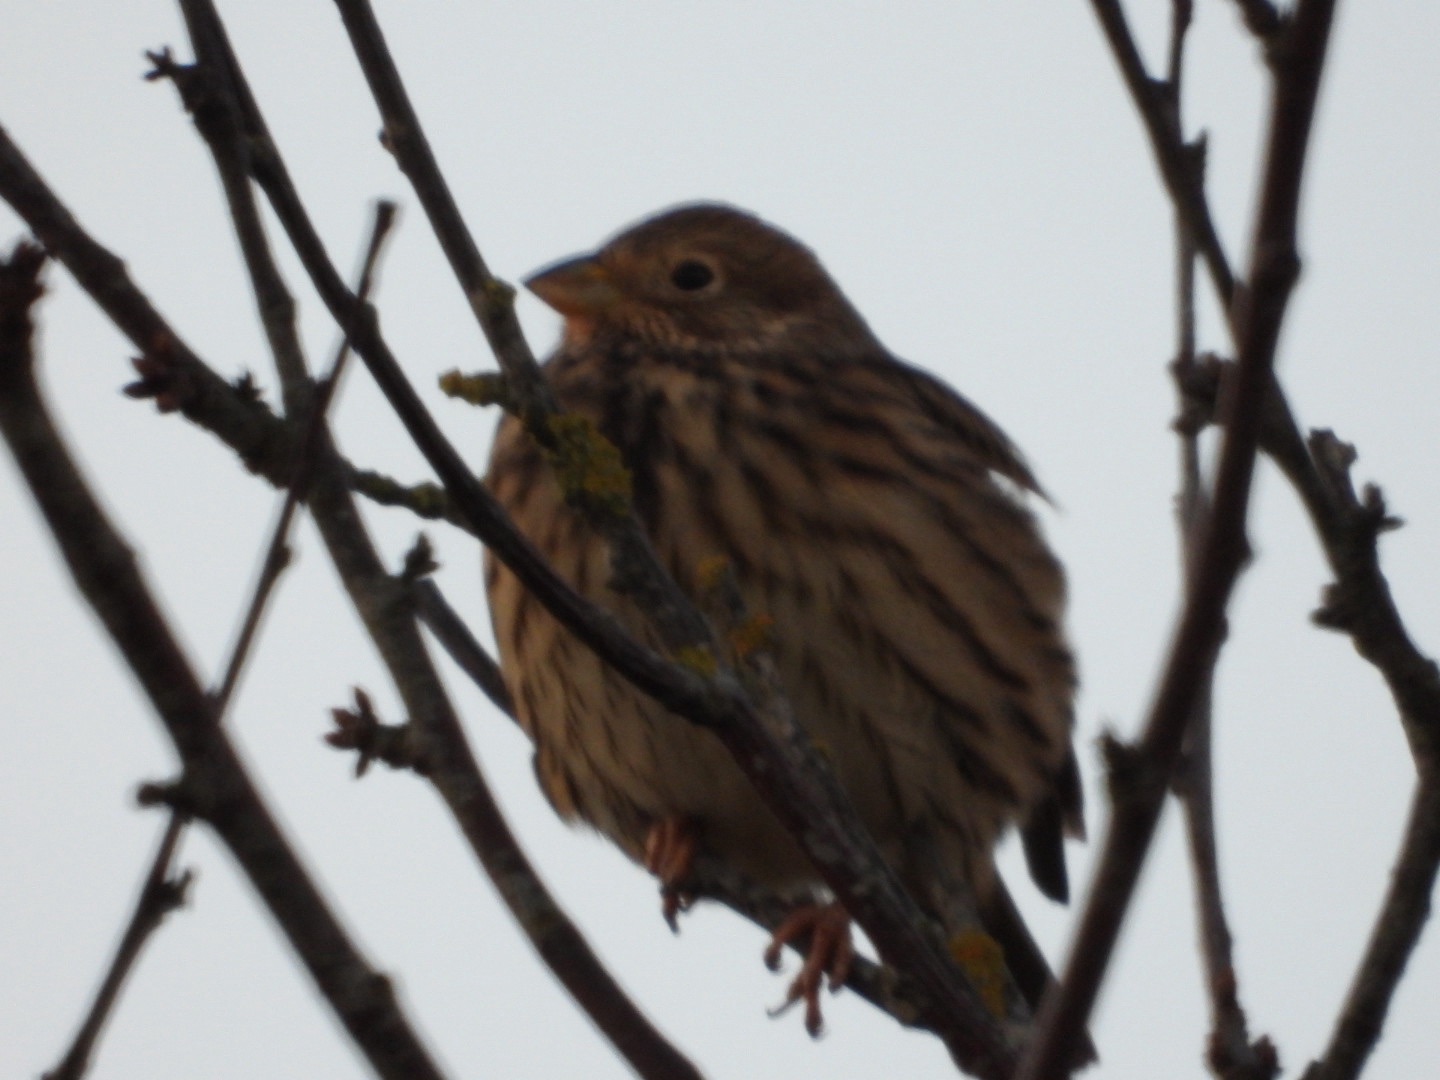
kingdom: Animalia
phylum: Chordata
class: Aves
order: Passeriformes
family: Emberizidae
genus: Emberiza
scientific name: Emberiza calandra
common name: Bomlærke
